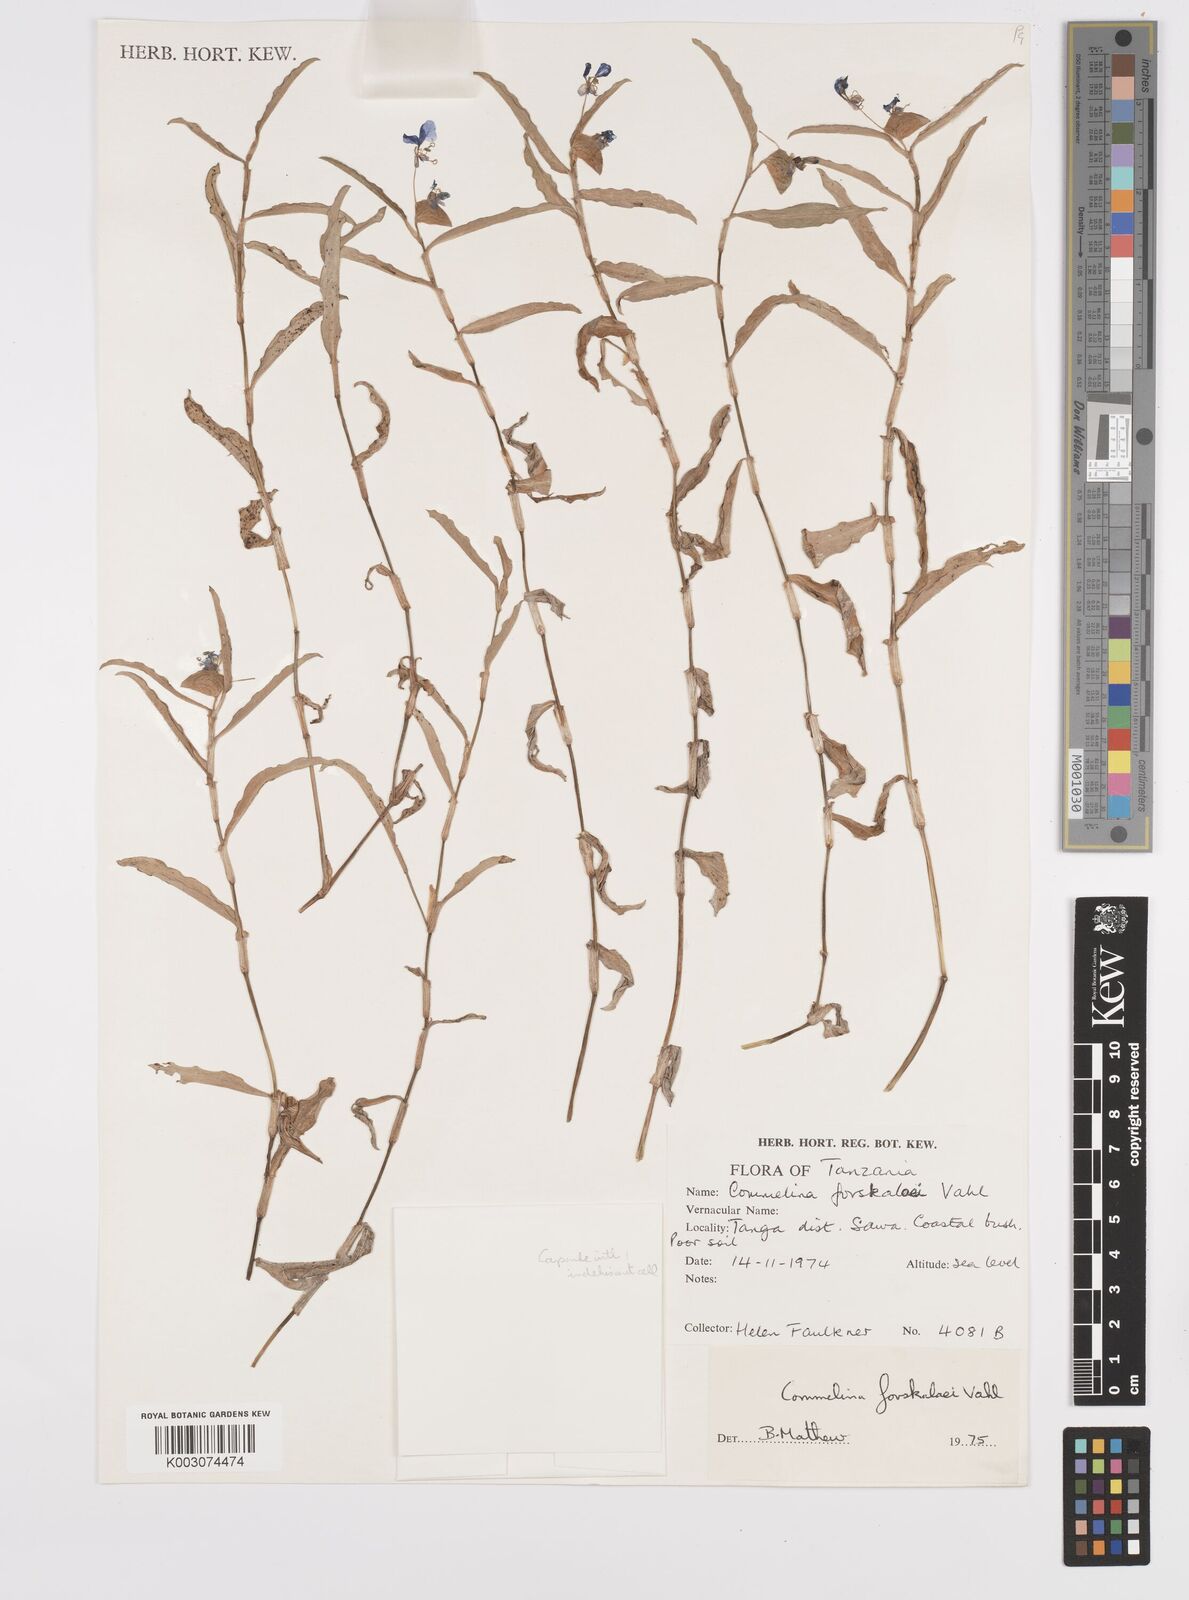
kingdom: Plantae
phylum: Tracheophyta
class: Liliopsida
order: Commelinales
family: Commelinaceae
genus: Commelina
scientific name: Commelina forskaolii
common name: Rat's ear
